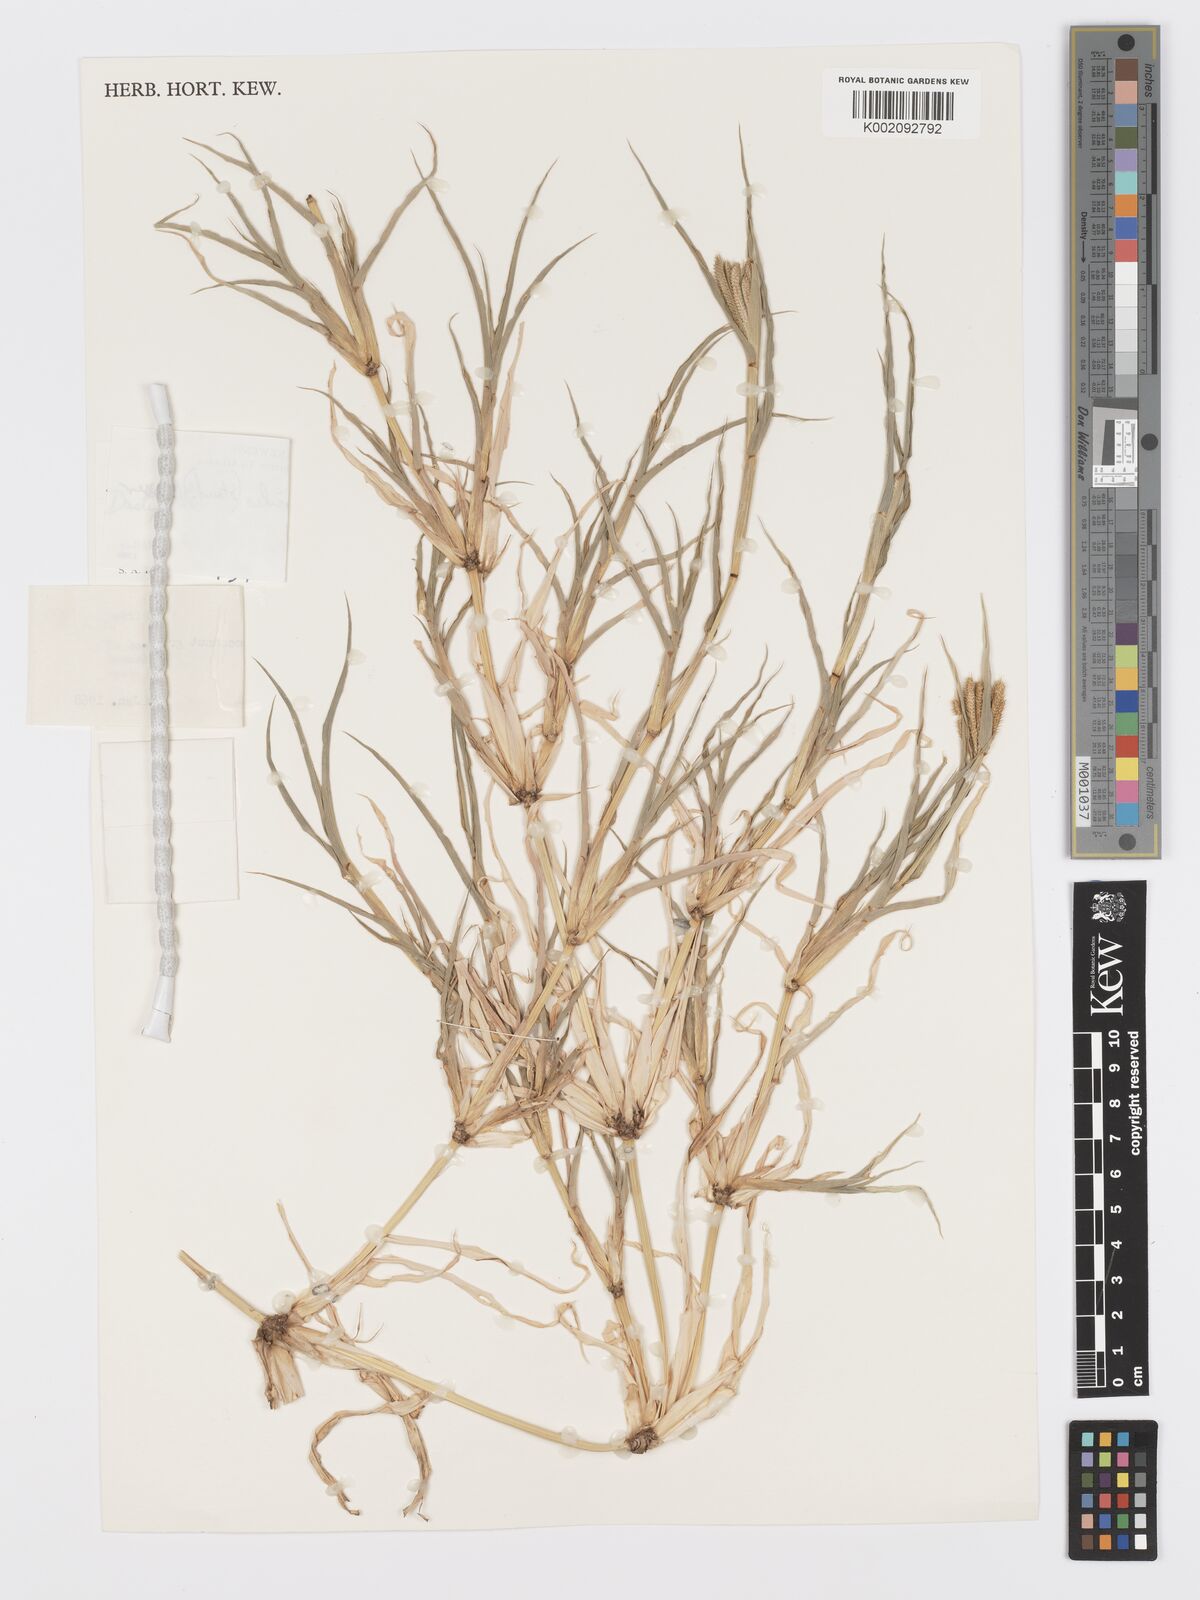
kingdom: Plantae
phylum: Tracheophyta
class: Liliopsida
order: Poales
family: Poaceae
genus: Dactyloctenium
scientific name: Dactyloctenium ctenoides
